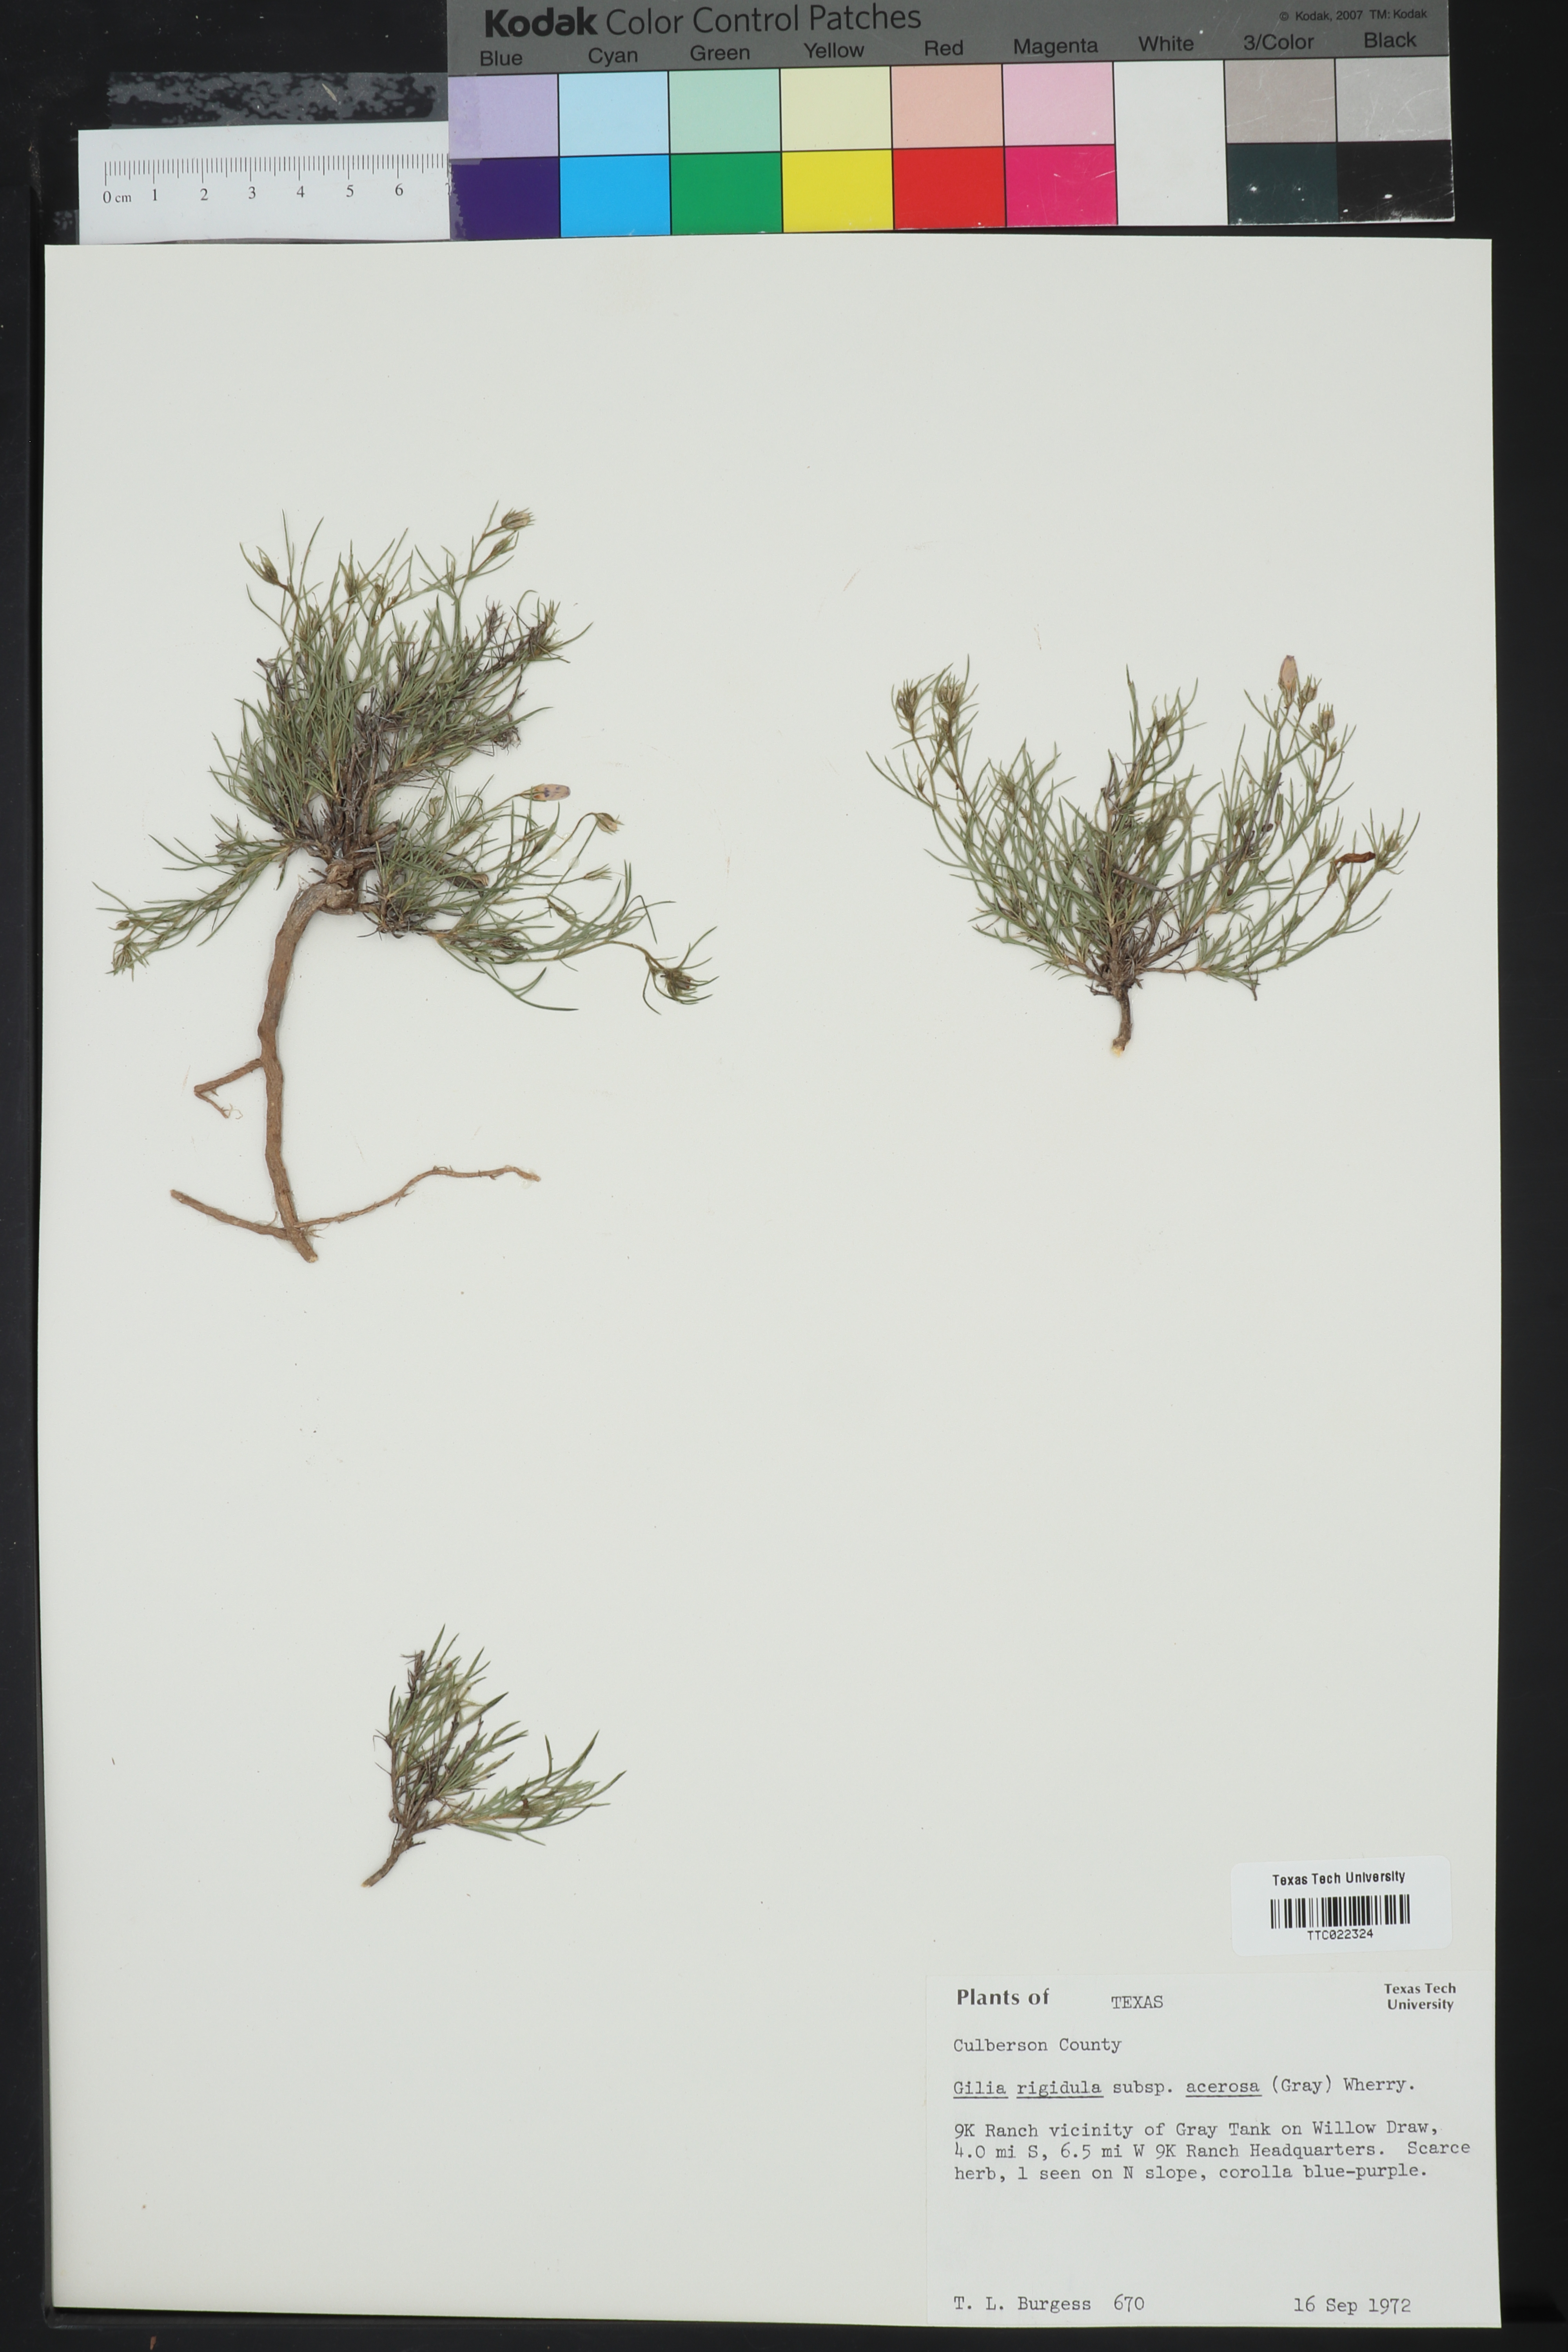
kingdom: Plantae
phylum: Tracheophyta
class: Magnoliopsida
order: Ericales
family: Polemoniaceae
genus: Giliastrum
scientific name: Giliastrum acerosum
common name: Bluebowls
